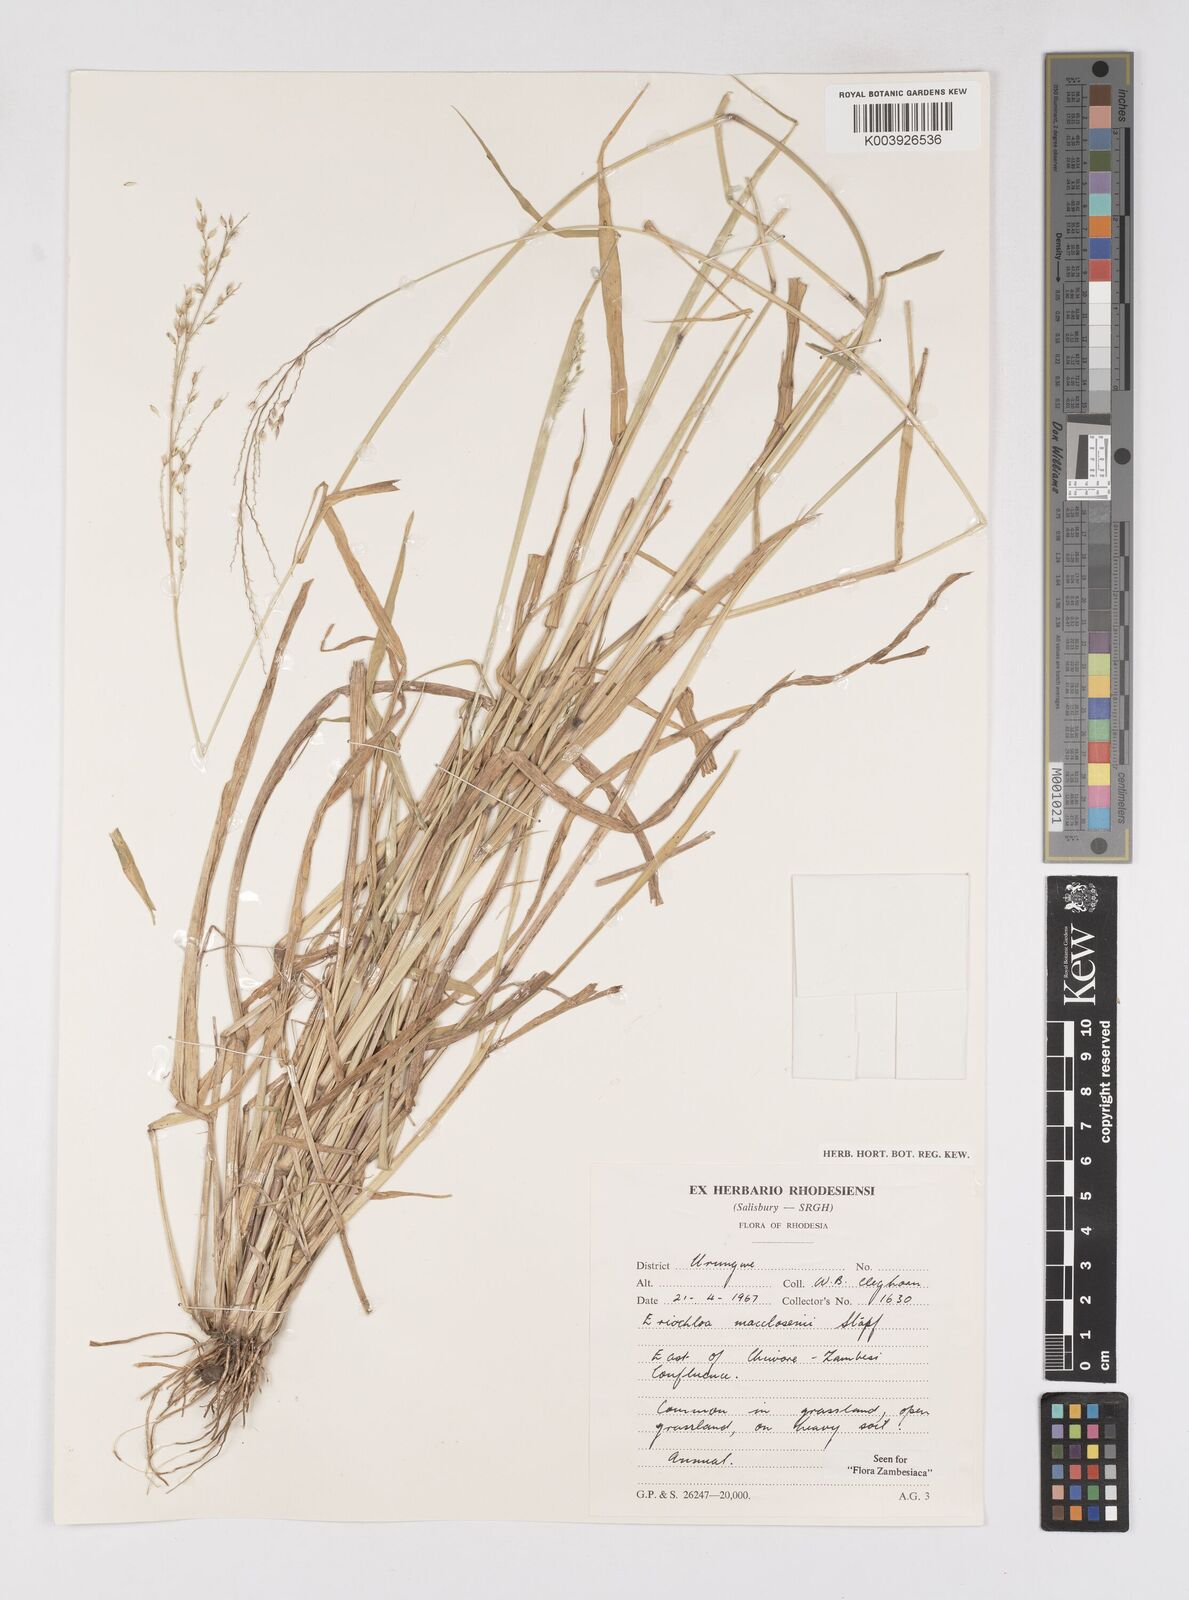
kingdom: Plantae
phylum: Tracheophyta
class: Liliopsida
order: Poales
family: Poaceae
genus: Eriochloa
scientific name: Eriochloa macclounii
